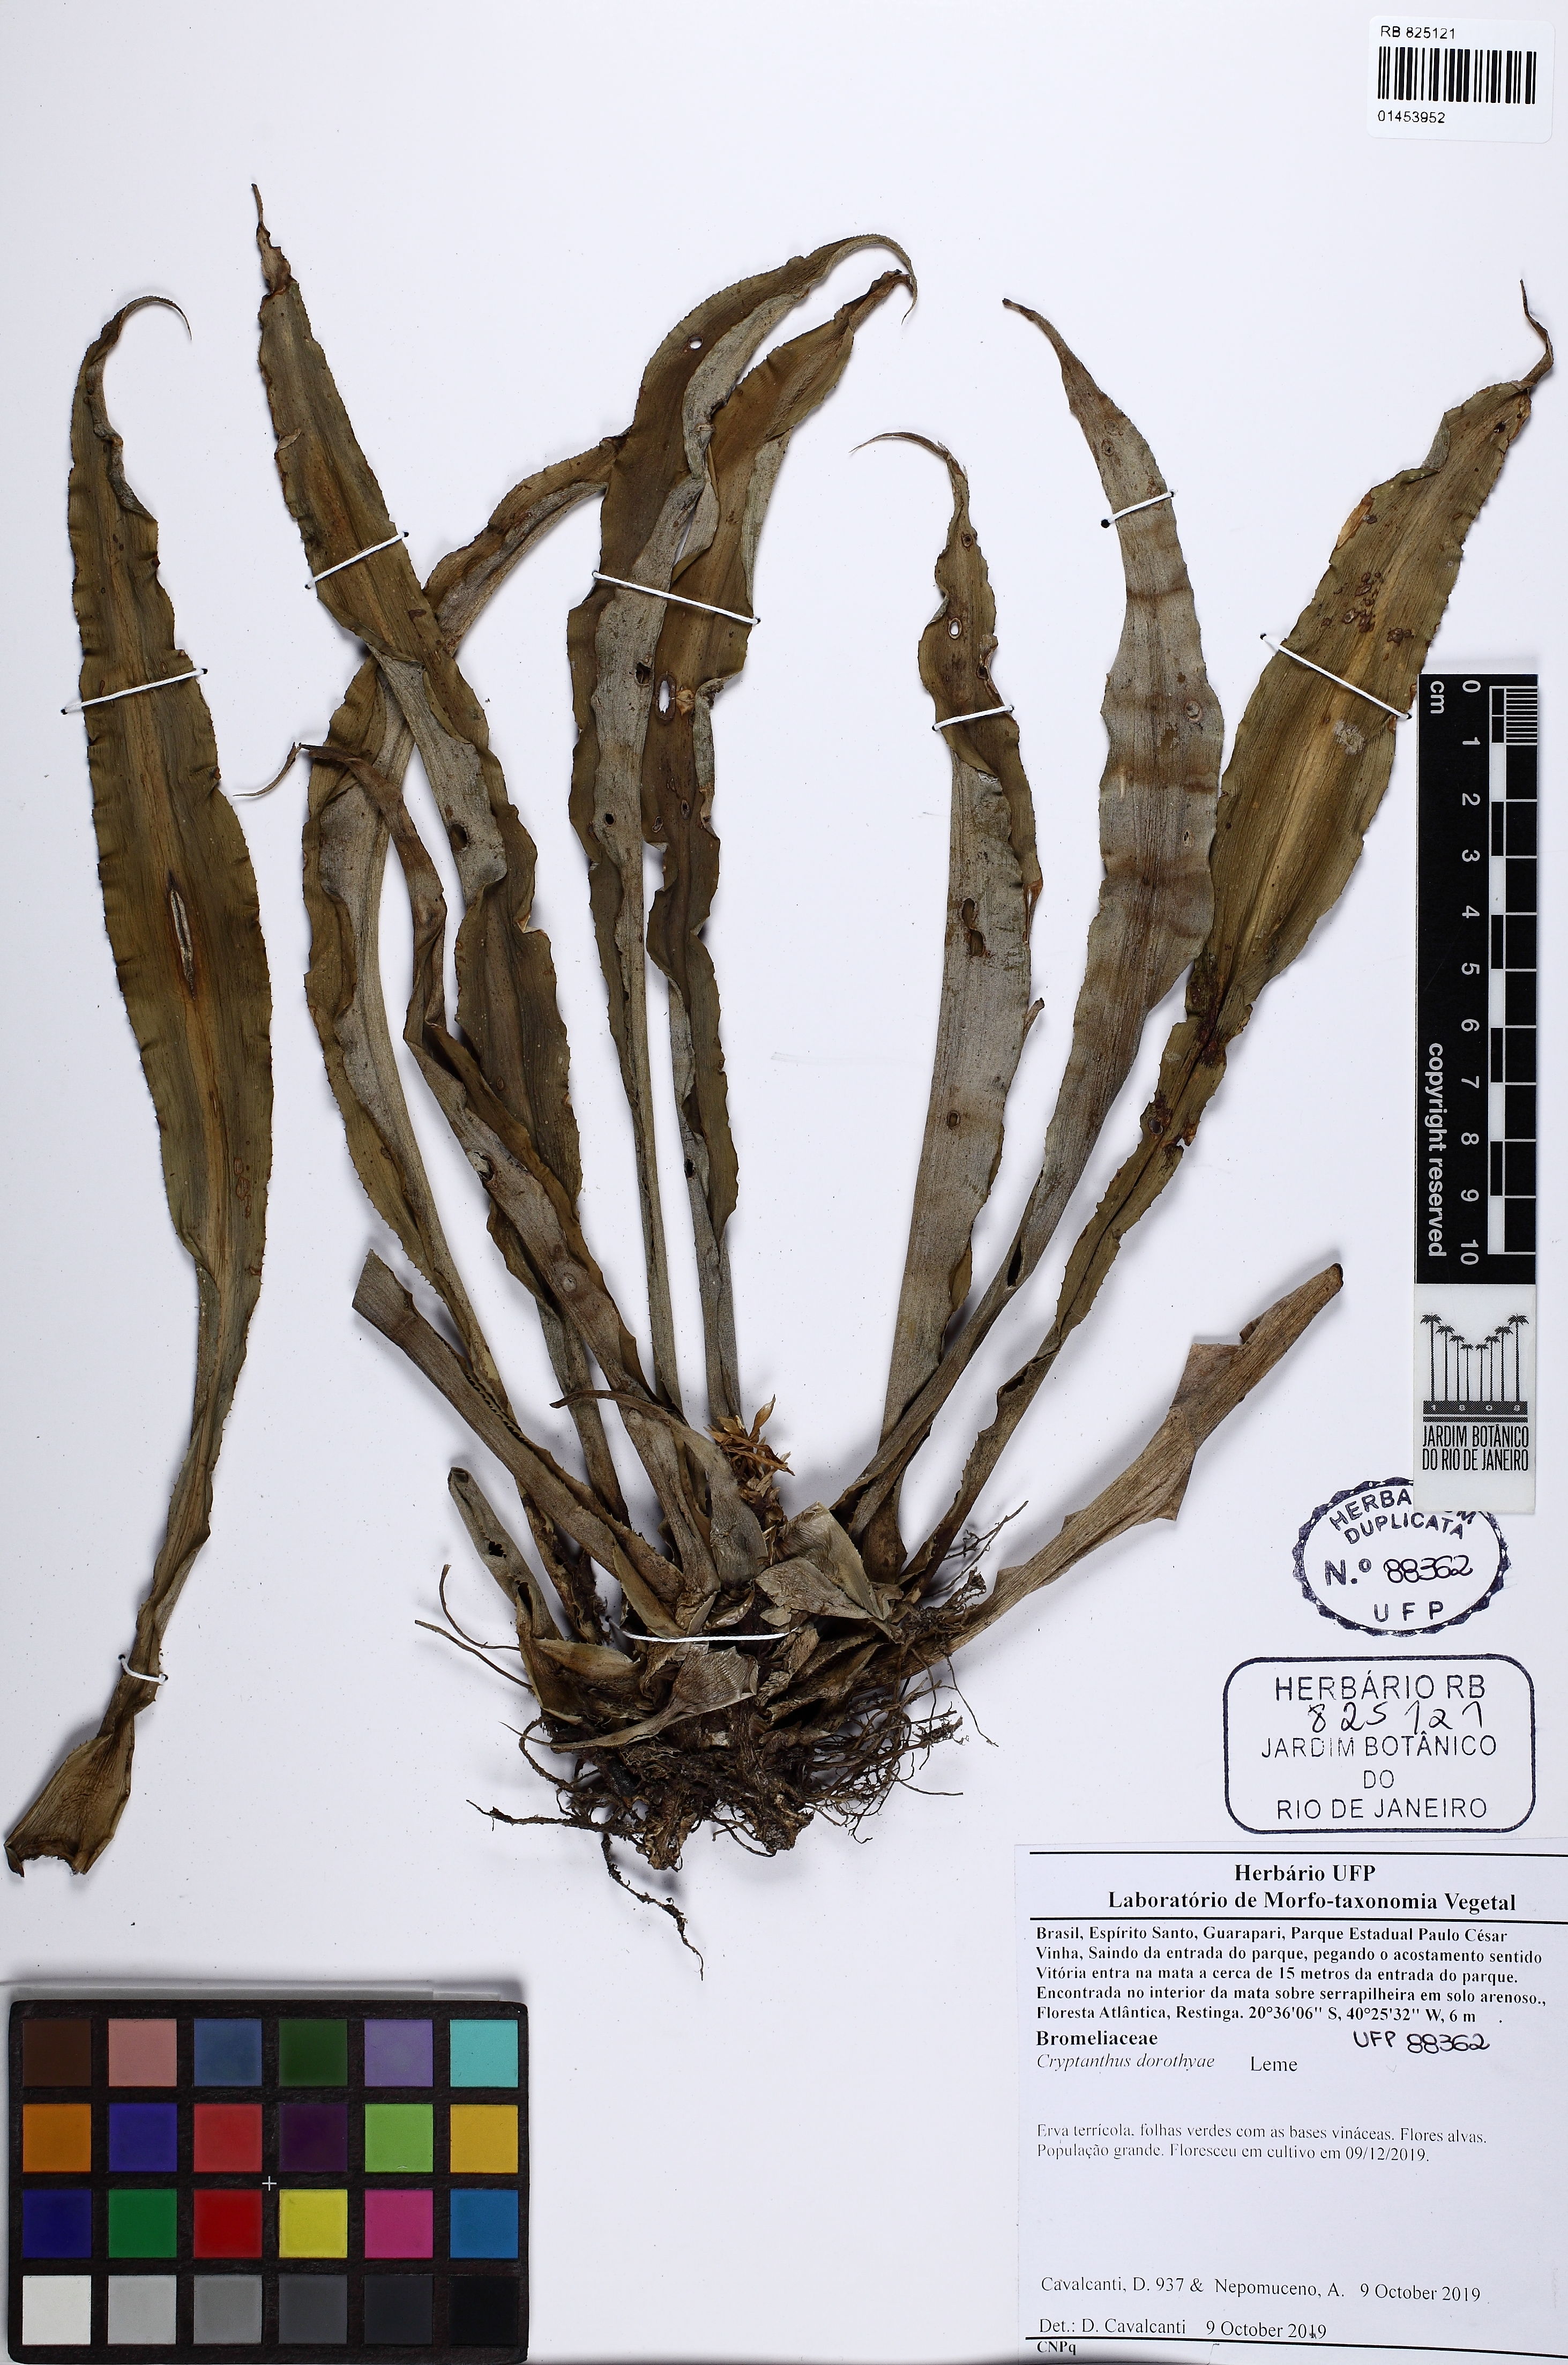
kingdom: Plantae
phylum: Tracheophyta
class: Liliopsida
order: Poales
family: Bromeliaceae
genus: Cryptanthus
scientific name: Cryptanthus dorothyae
